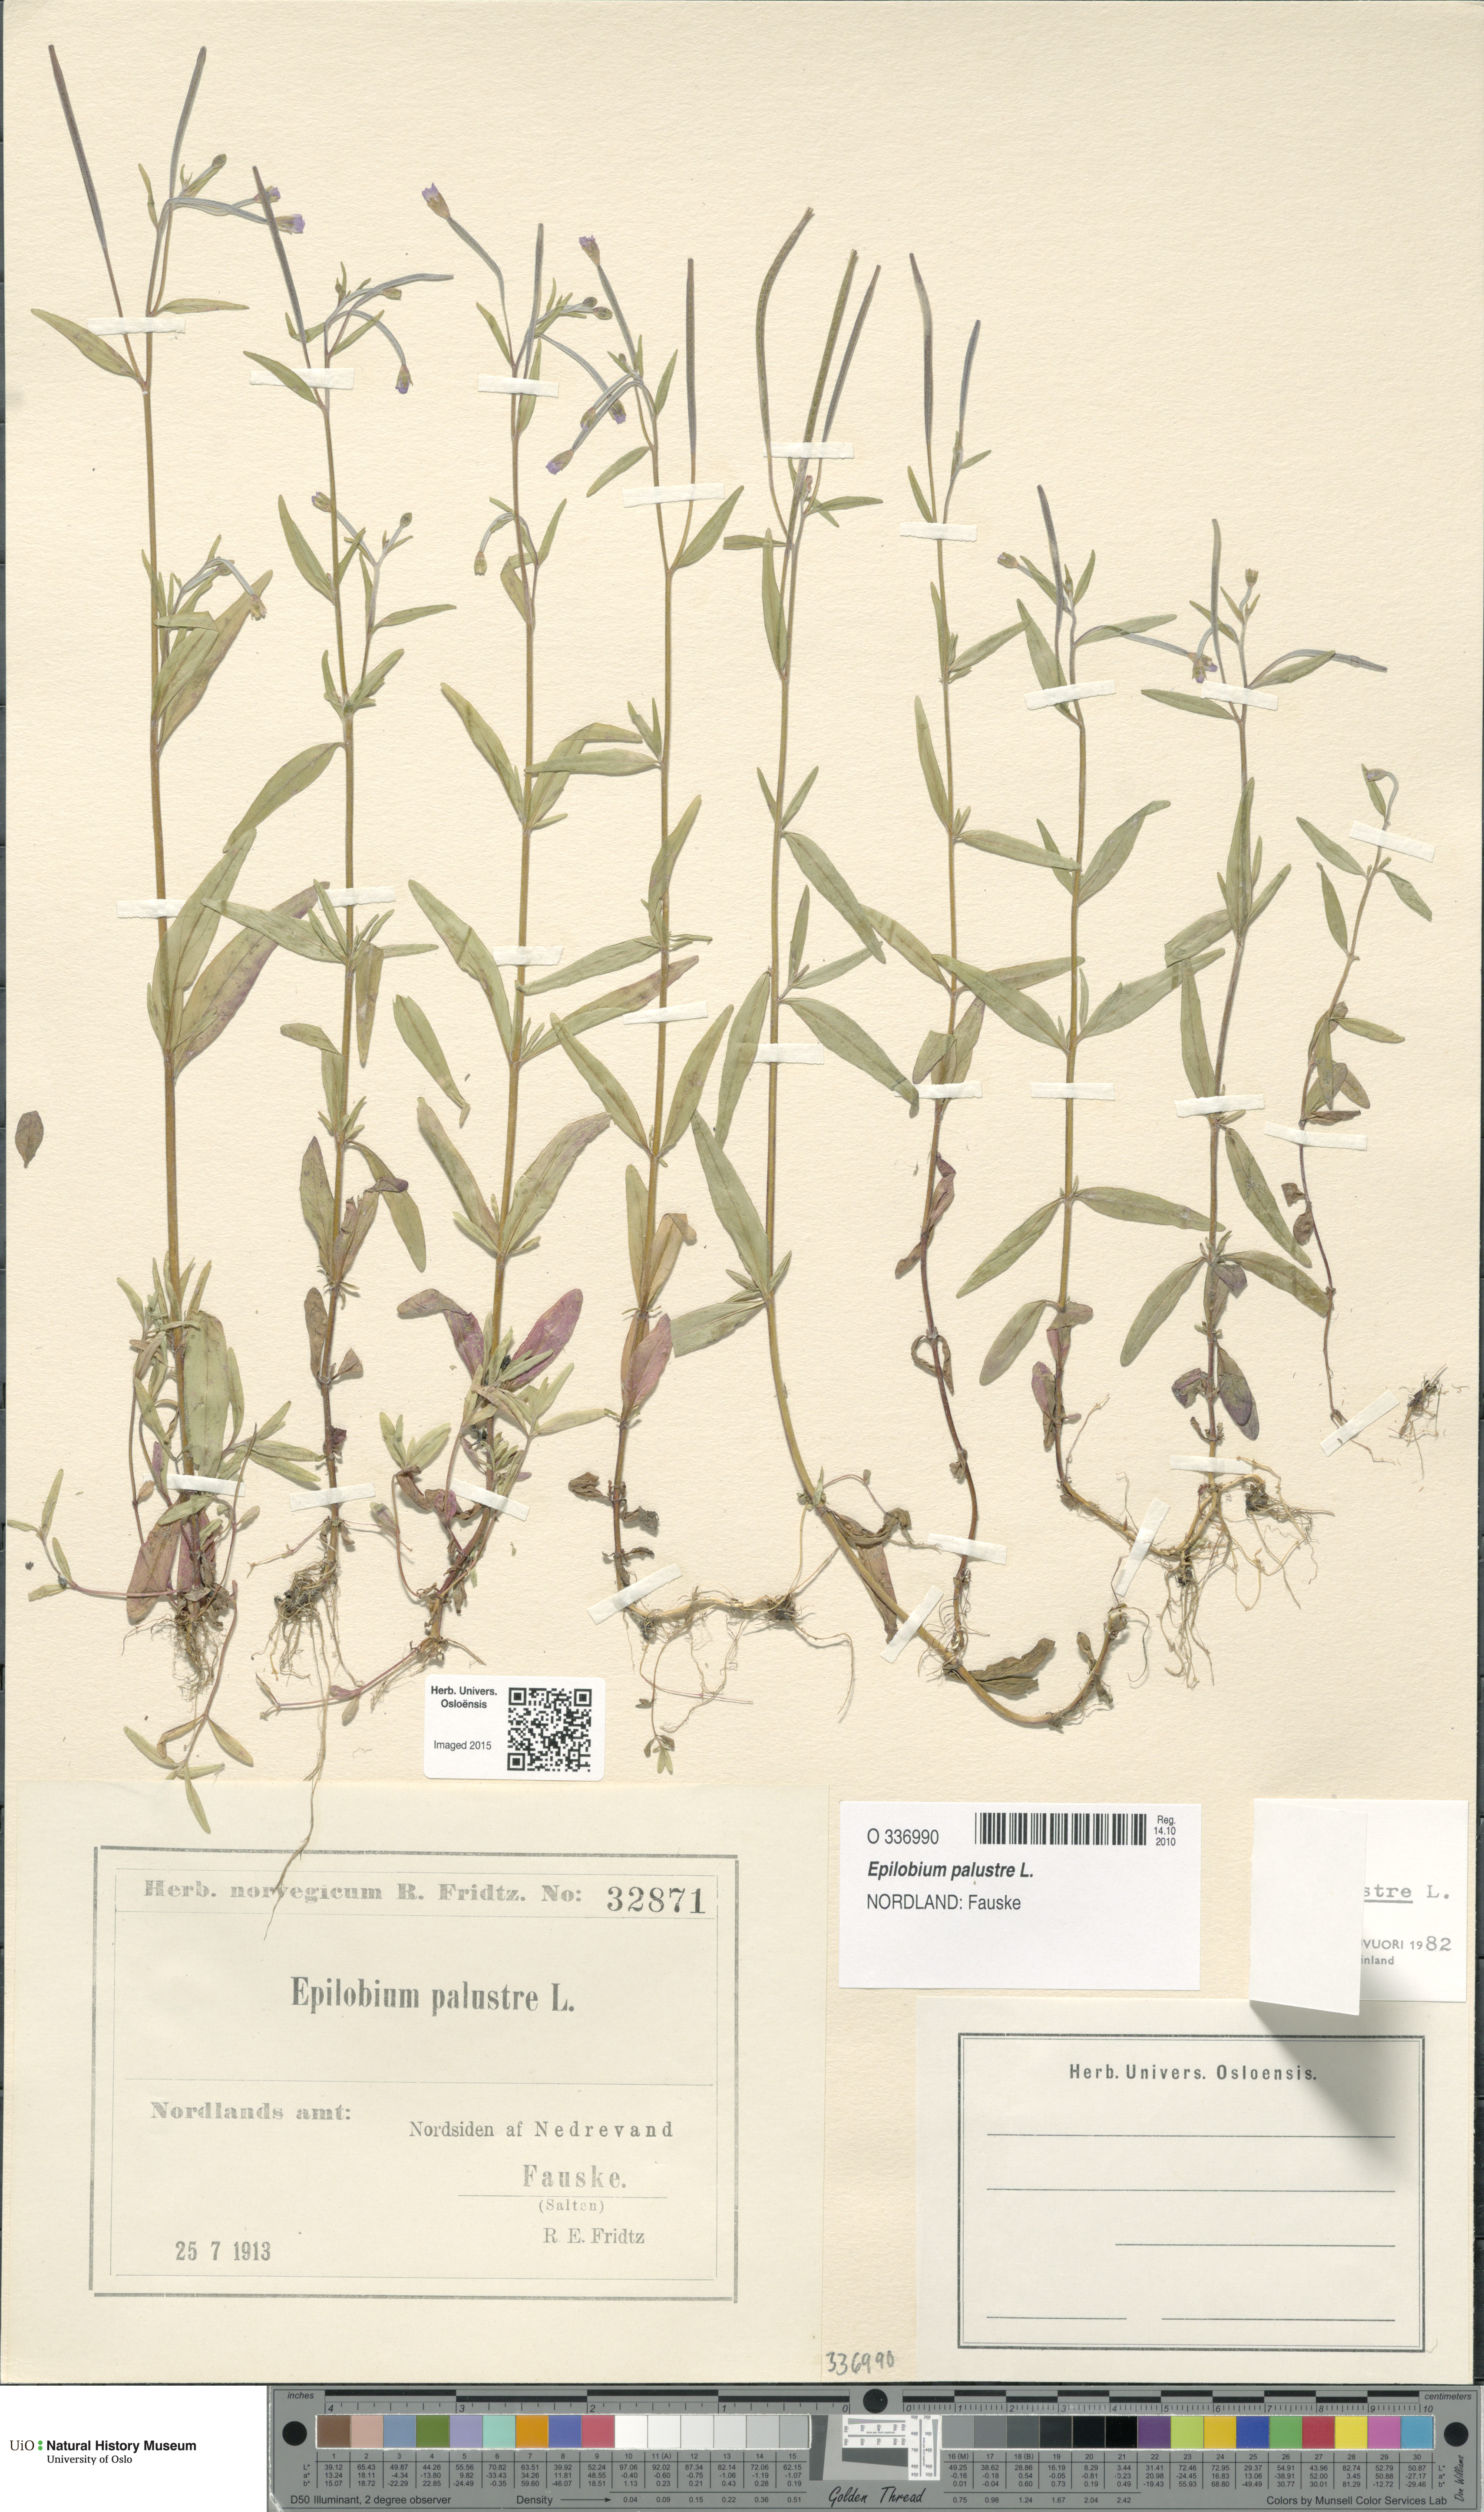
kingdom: Plantae
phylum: Tracheophyta
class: Magnoliopsida
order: Myrtales
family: Onagraceae
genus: Epilobium
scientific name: Epilobium palustre
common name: Marsh willowherb
